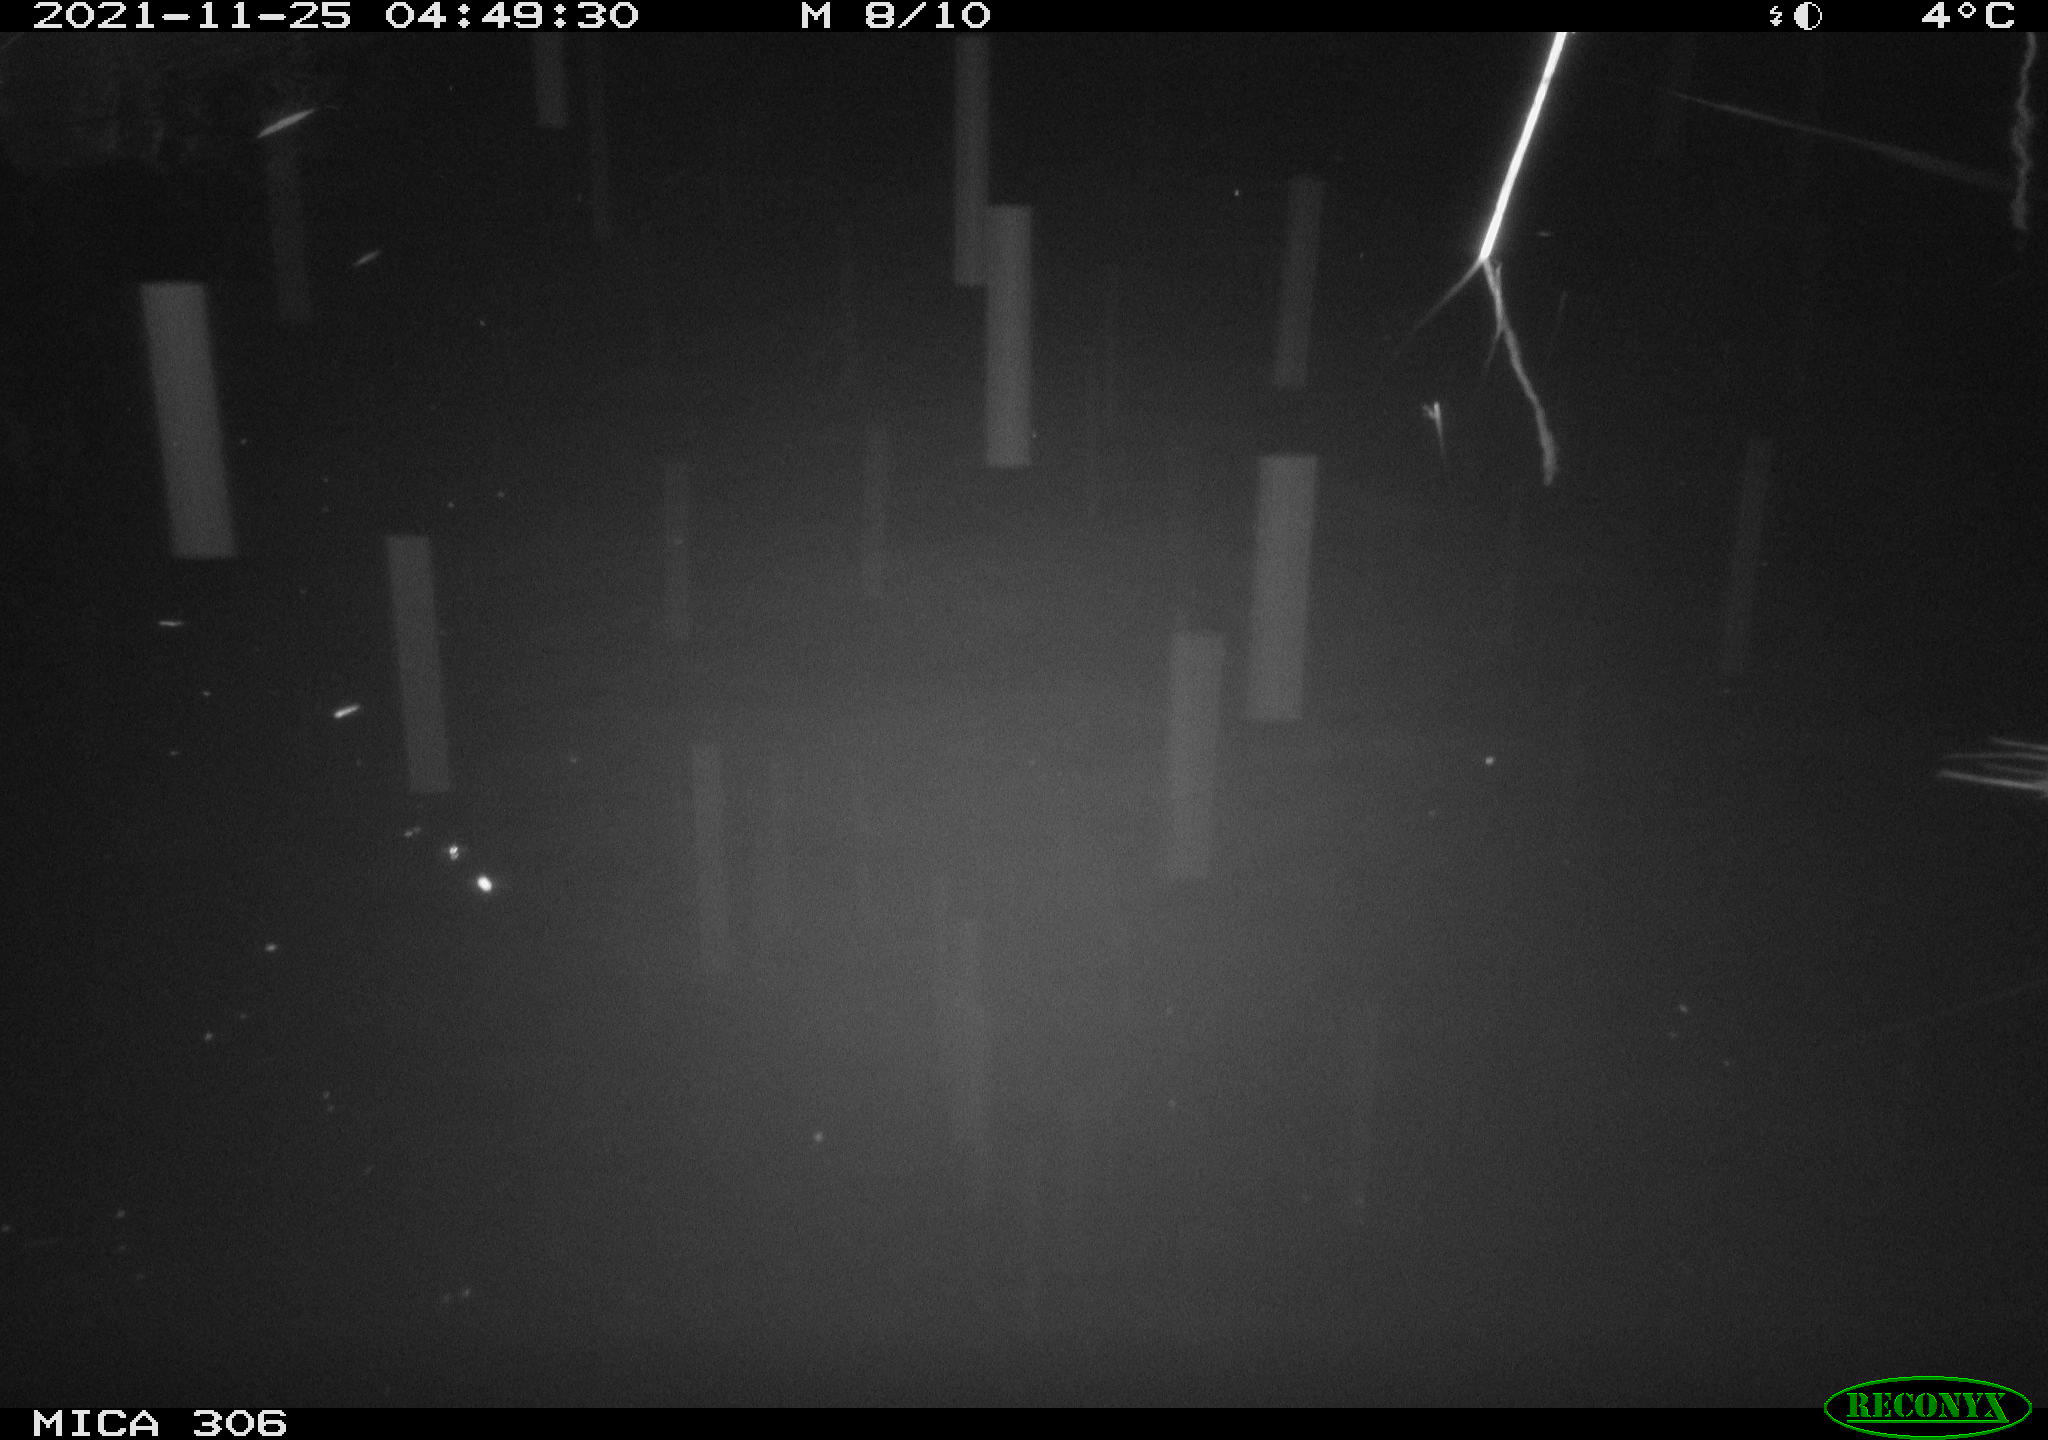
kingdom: Animalia
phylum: Chordata
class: Mammalia
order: Rodentia
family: Muridae
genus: Rattus
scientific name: Rattus norvegicus
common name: Brown rat
